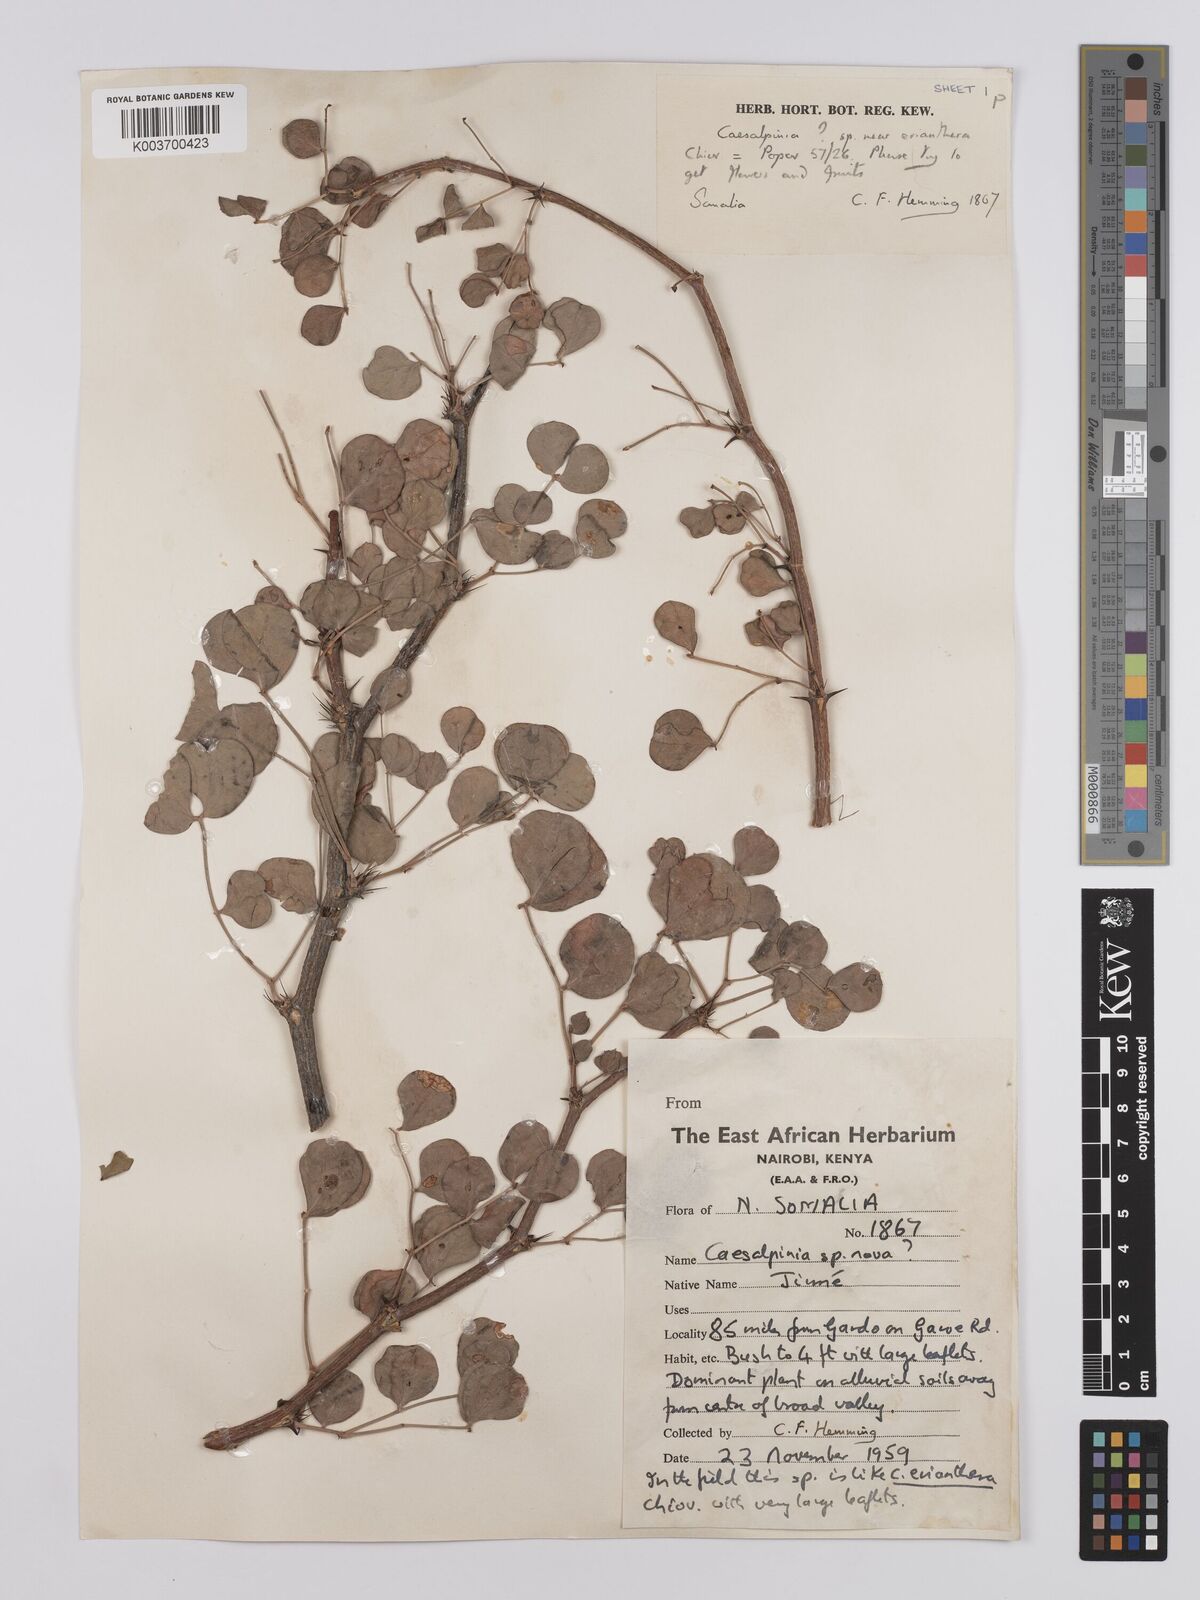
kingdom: Plantae
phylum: Tracheophyta
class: Magnoliopsida
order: Fabales
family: Fabaceae
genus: Denisophytum
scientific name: Denisophytum eriantherum
